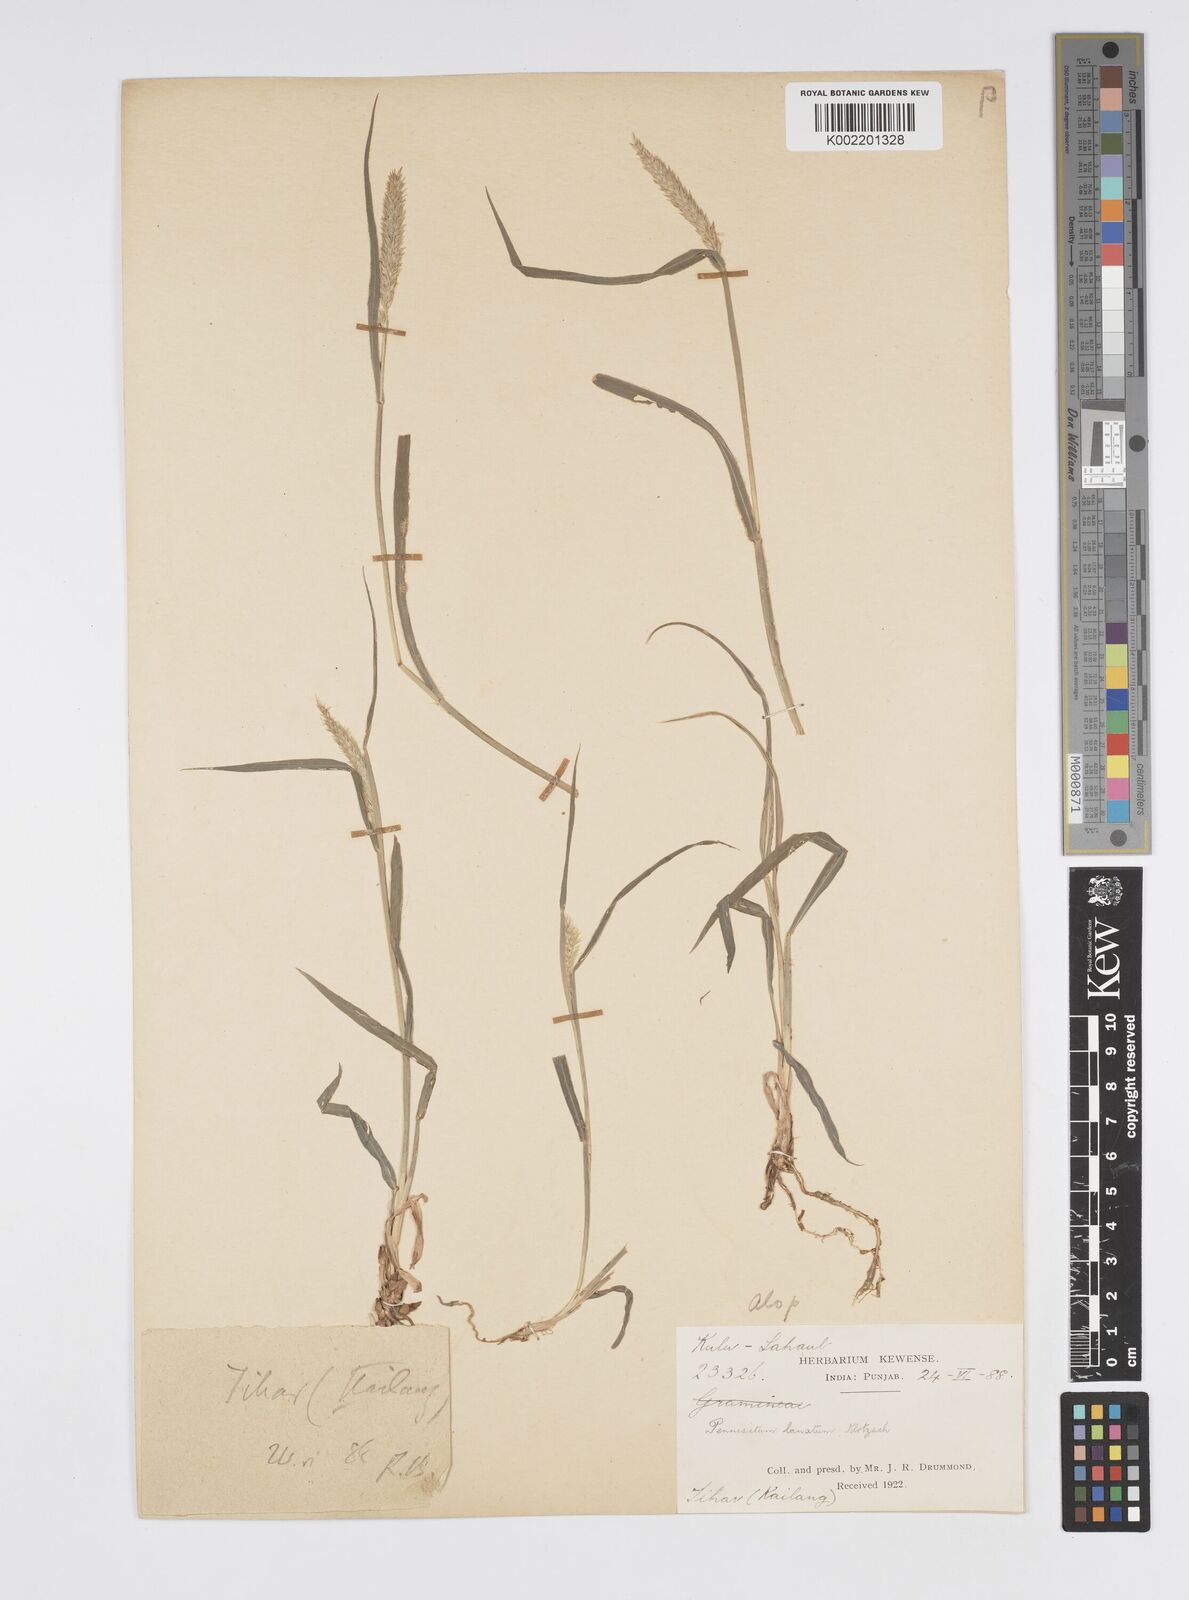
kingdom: Plantae
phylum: Tracheophyta
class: Liliopsida
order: Poales
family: Poaceae
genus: Cenchrus
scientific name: Cenchrus lanatus
